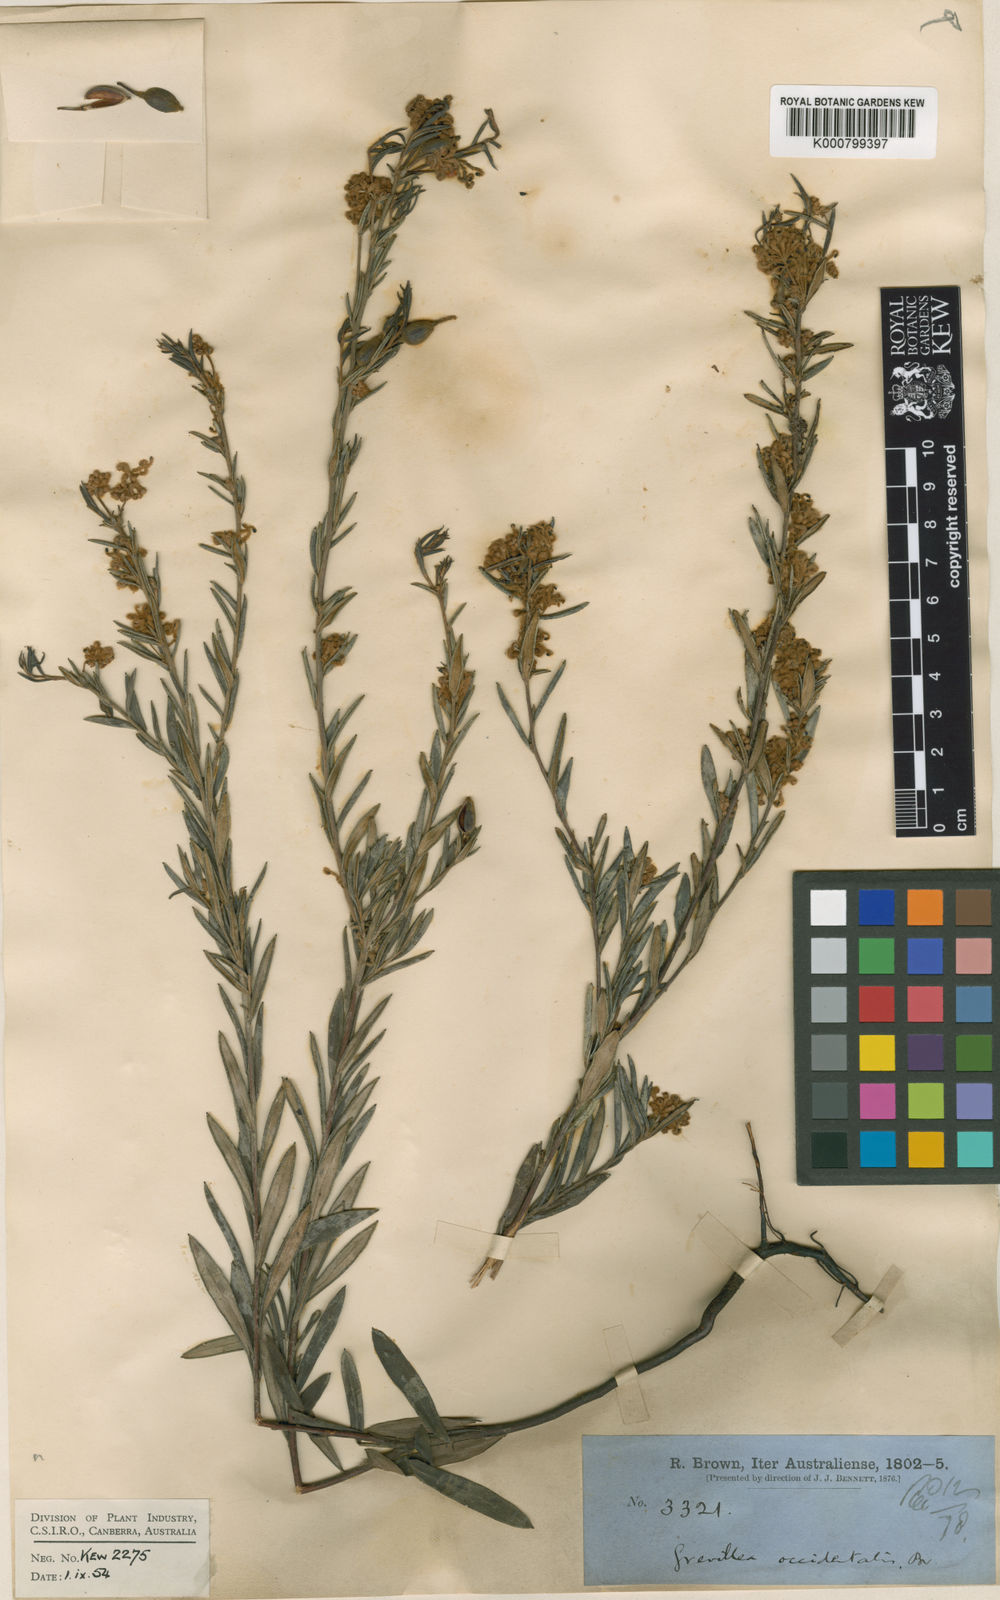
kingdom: Plantae
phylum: Tracheophyta
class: Magnoliopsida
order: Proteales
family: Proteaceae
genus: Grevillea
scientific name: Grevillea occidentalis
